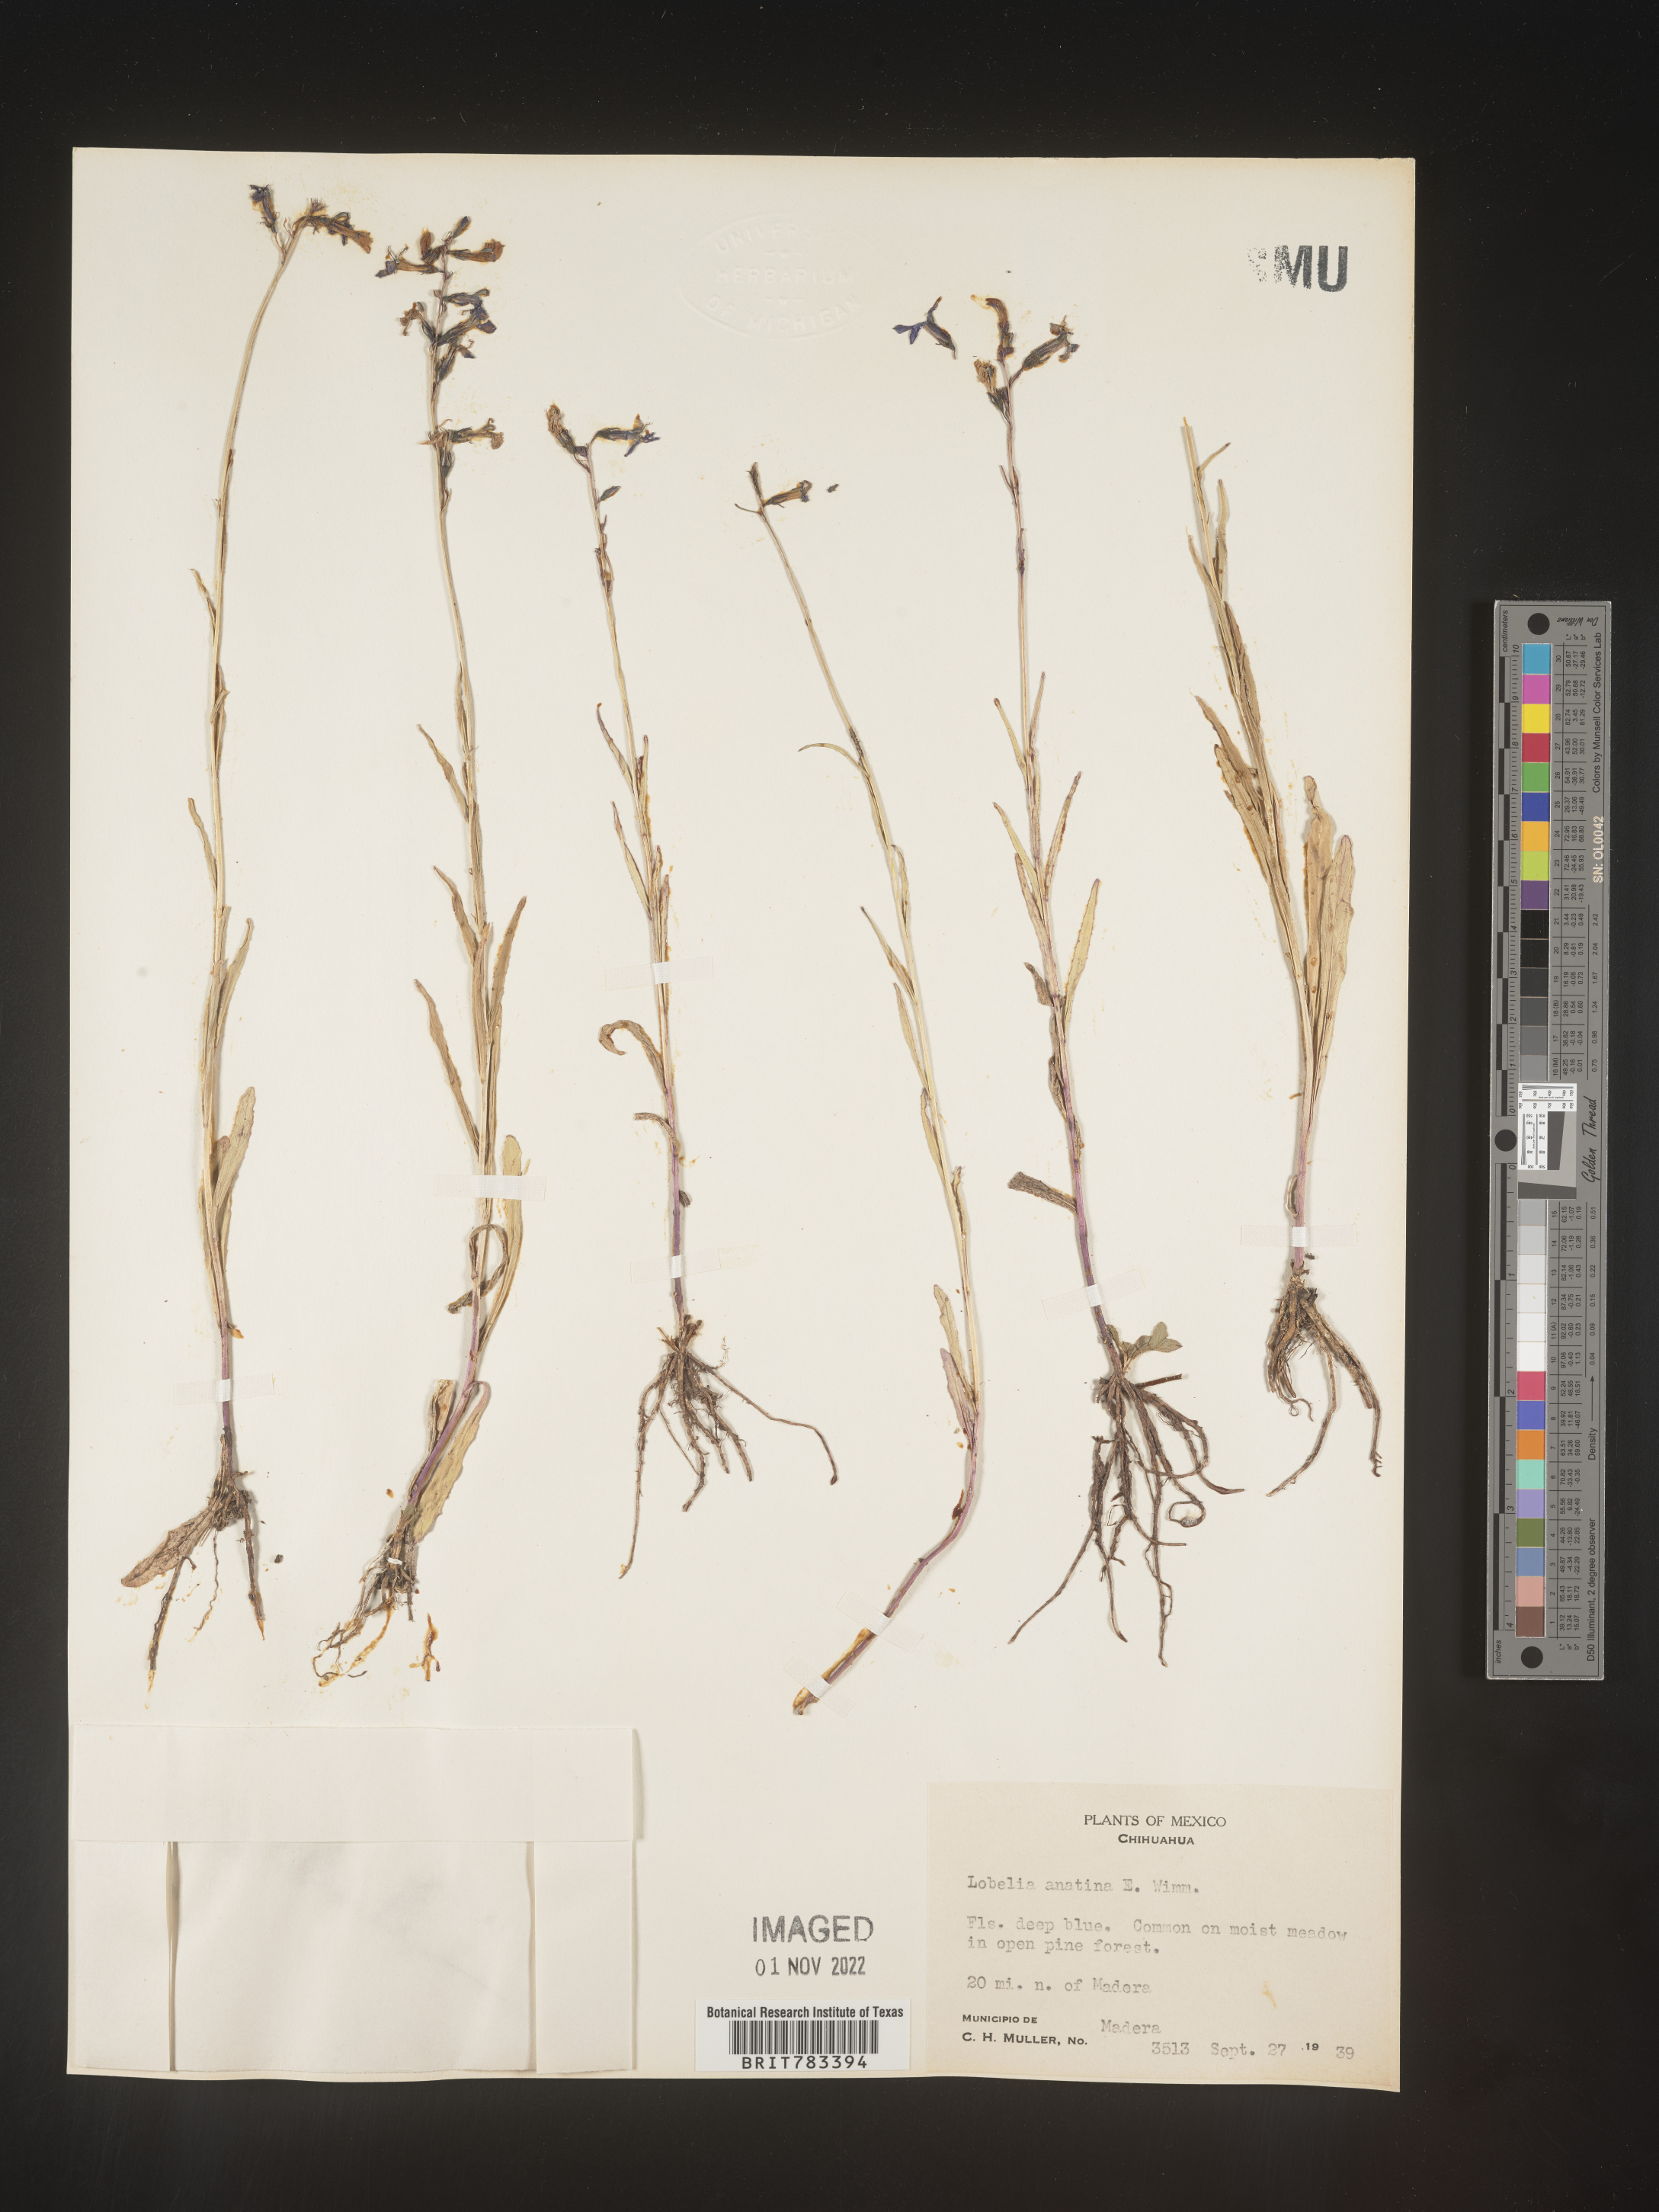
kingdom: Plantae
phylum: Tracheophyta
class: Magnoliopsida
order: Asterales
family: Campanulaceae
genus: Lobelia
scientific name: Lobelia
